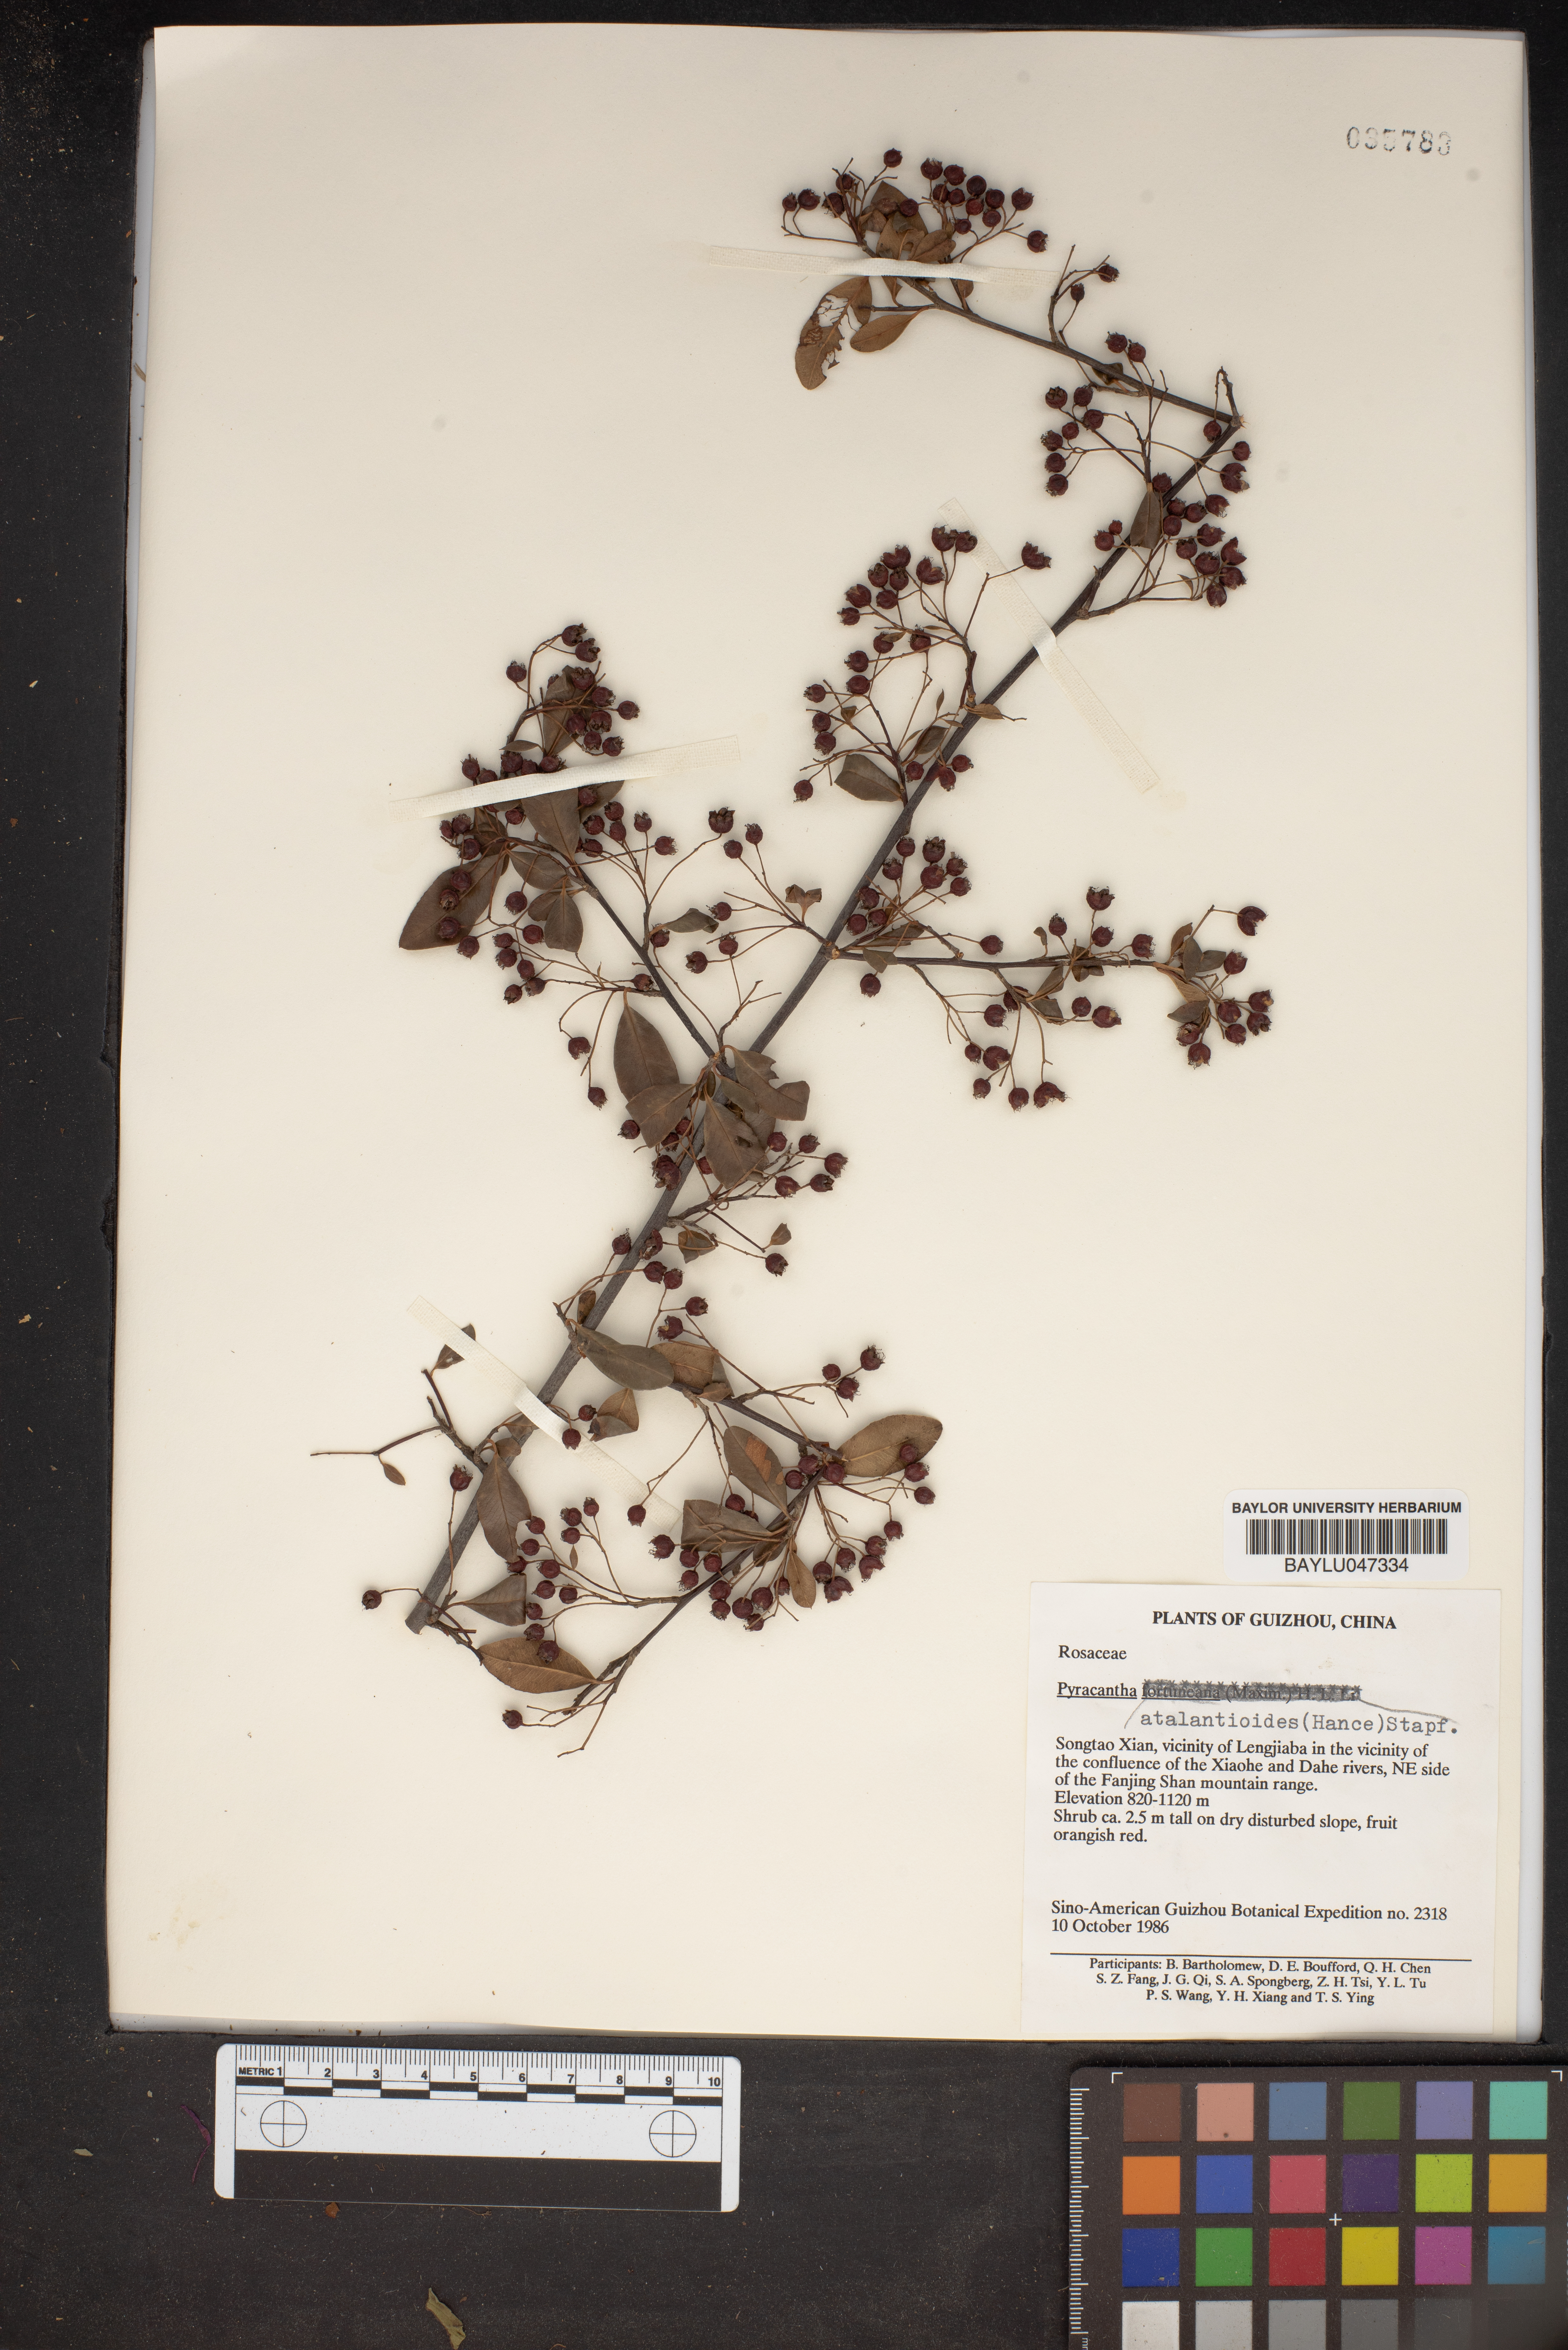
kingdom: Plantae
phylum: Tracheophyta
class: Magnoliopsida
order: Rosales
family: Rosaceae
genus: Pyracantha
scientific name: Pyracantha atalantioides
